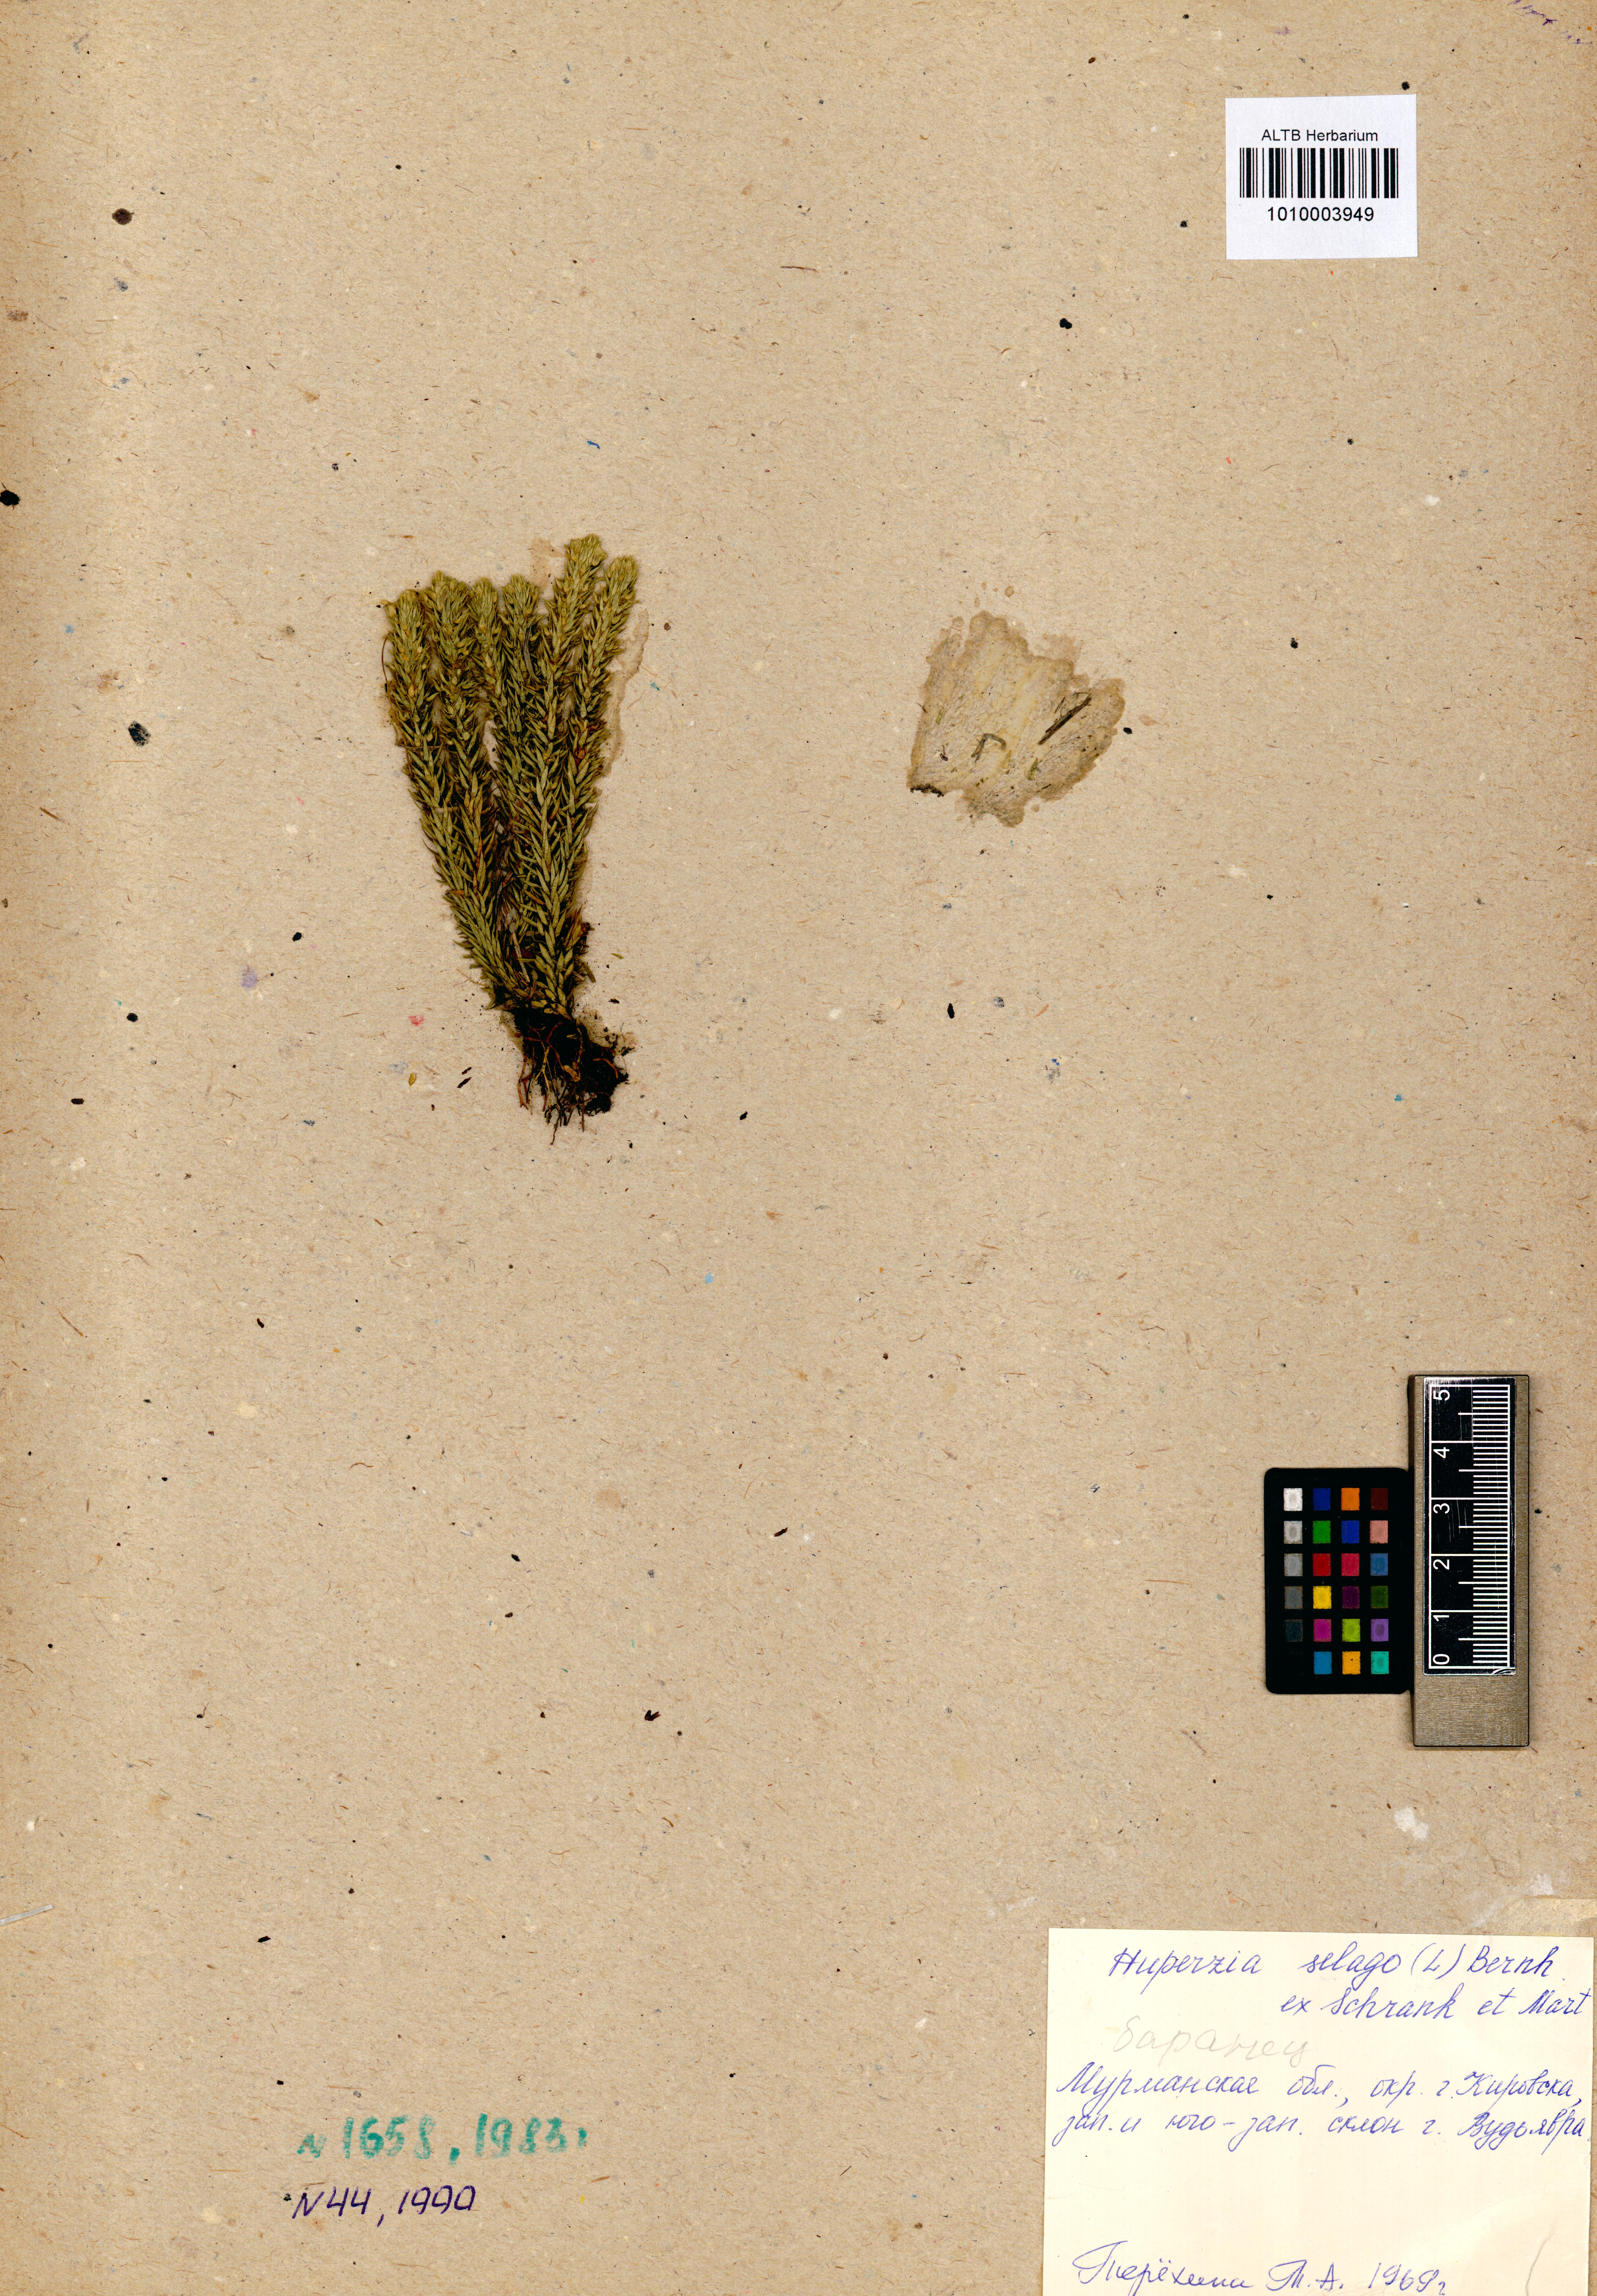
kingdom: Plantae
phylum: Tracheophyta
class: Lycopodiopsida
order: Lycopodiales
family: Lycopodiaceae
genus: Huperzia
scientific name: Huperzia selago
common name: Northern firmoss
